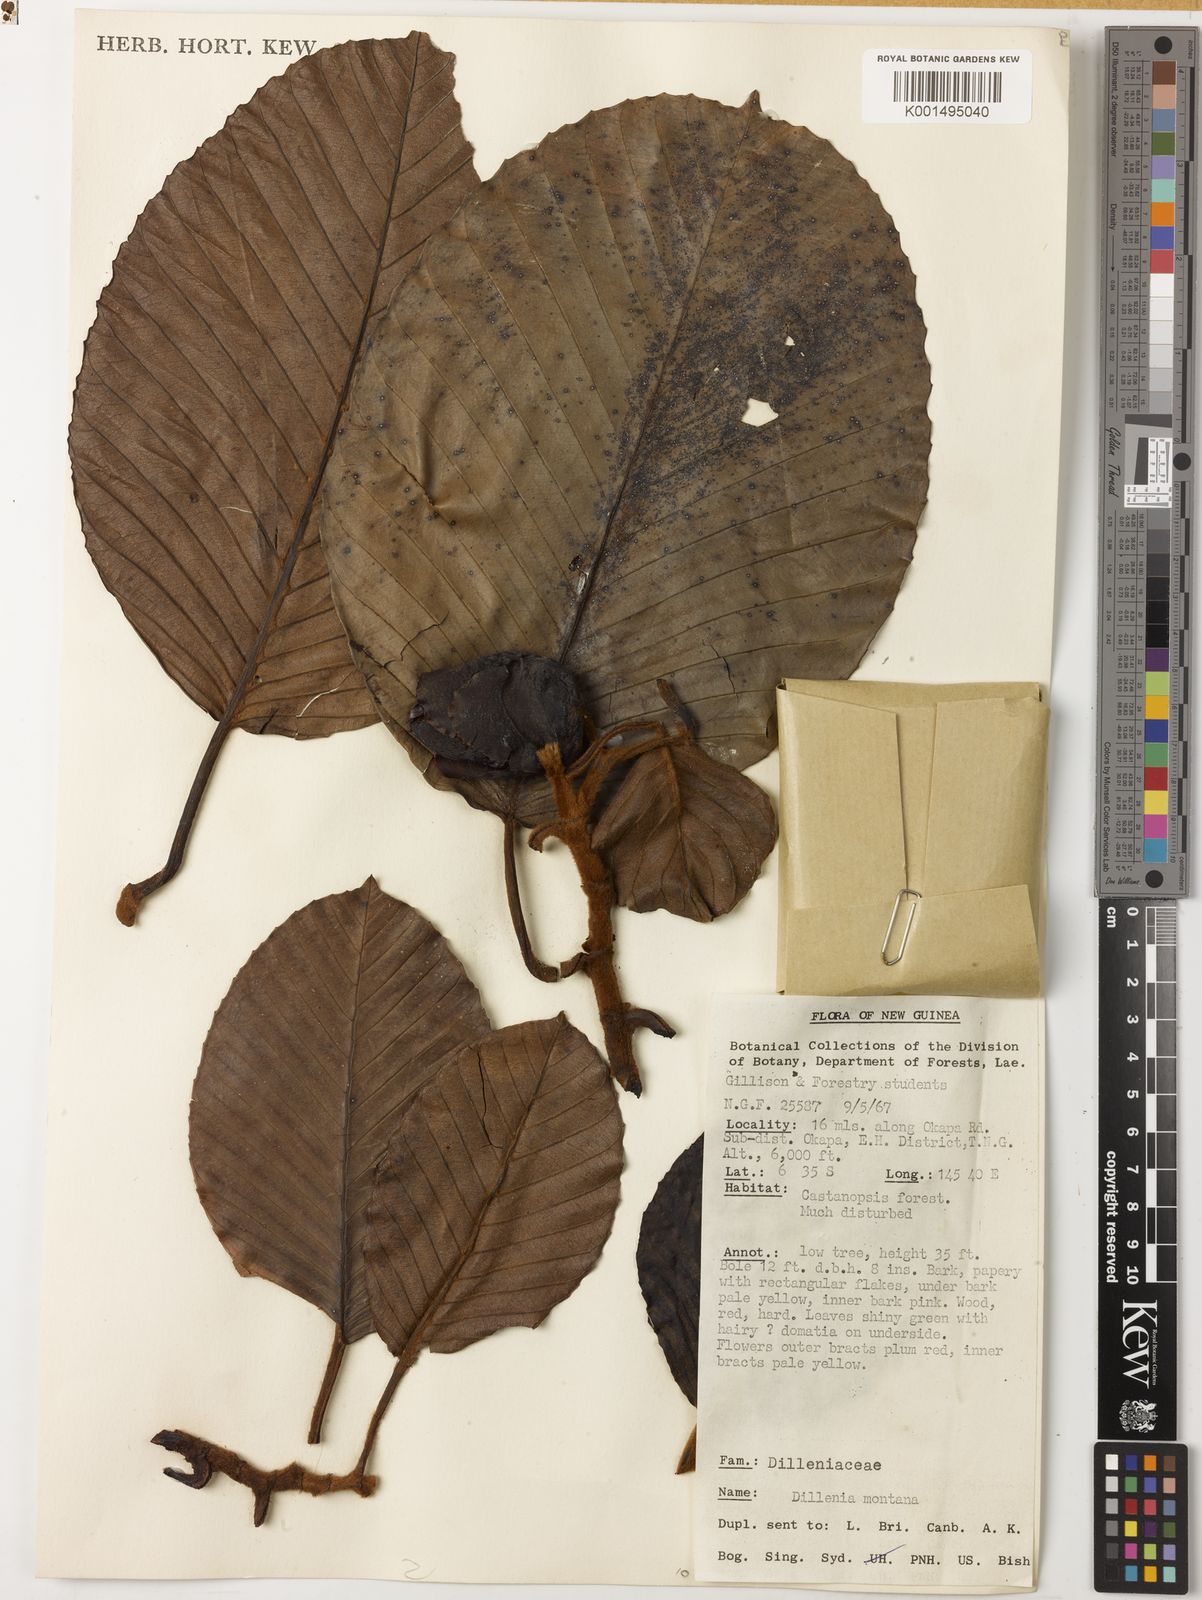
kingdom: Plantae
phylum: Tracheophyta
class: Magnoliopsida
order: Dilleniales
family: Dilleniaceae
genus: Dillenia
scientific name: Dillenia montana
